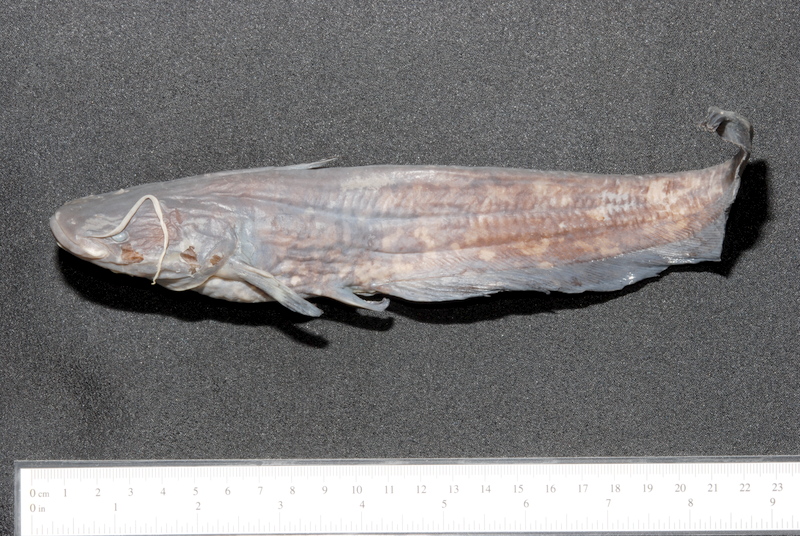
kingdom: Animalia
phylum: Chordata
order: Siluriformes
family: Siluridae
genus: Silurus
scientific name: Silurus glanis
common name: Wels
